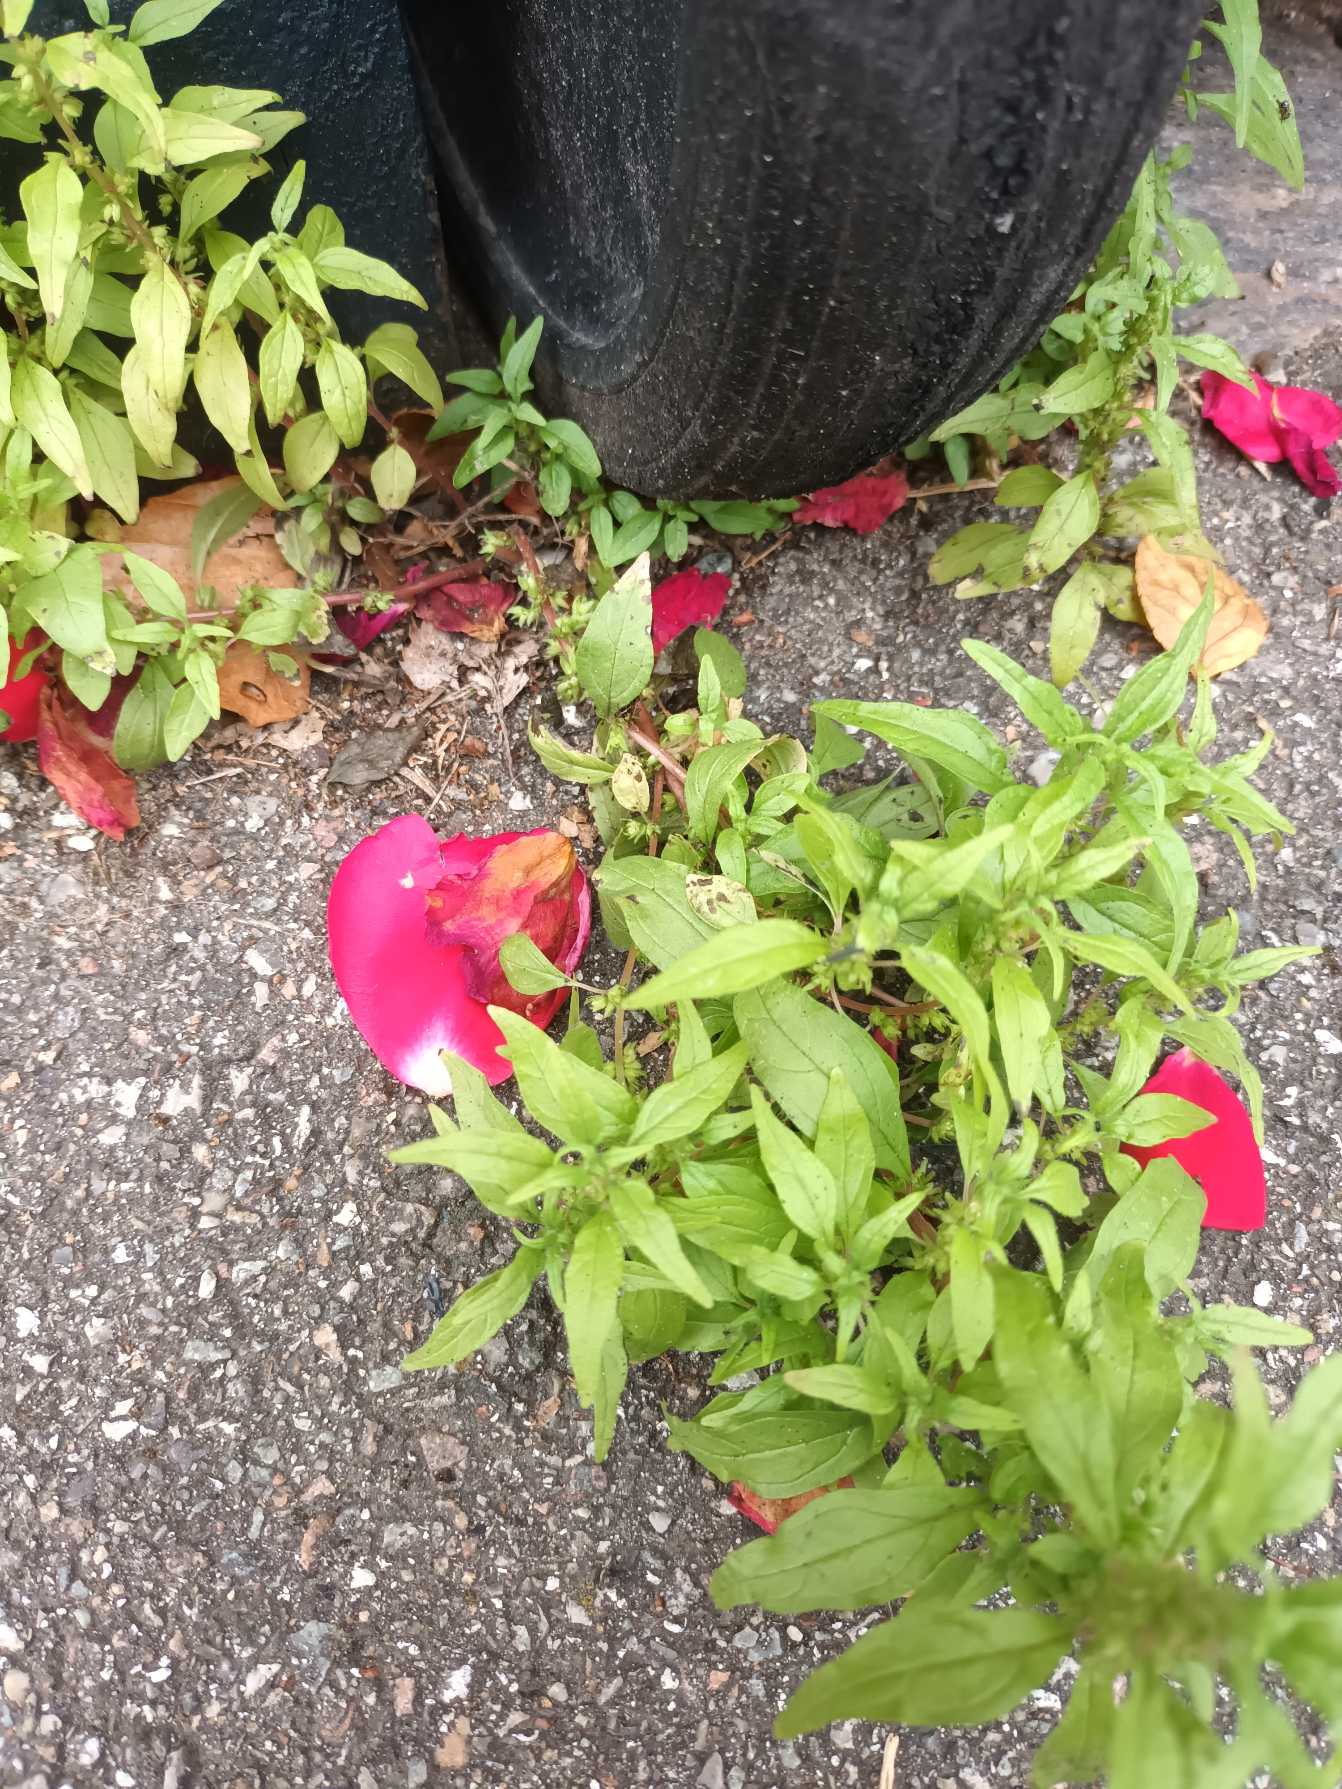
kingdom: Plantae
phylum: Tracheophyta
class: Magnoliopsida
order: Rosales
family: Urticaceae
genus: Parietaria
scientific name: Parietaria pensylvanica
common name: Amerikansk springknap
